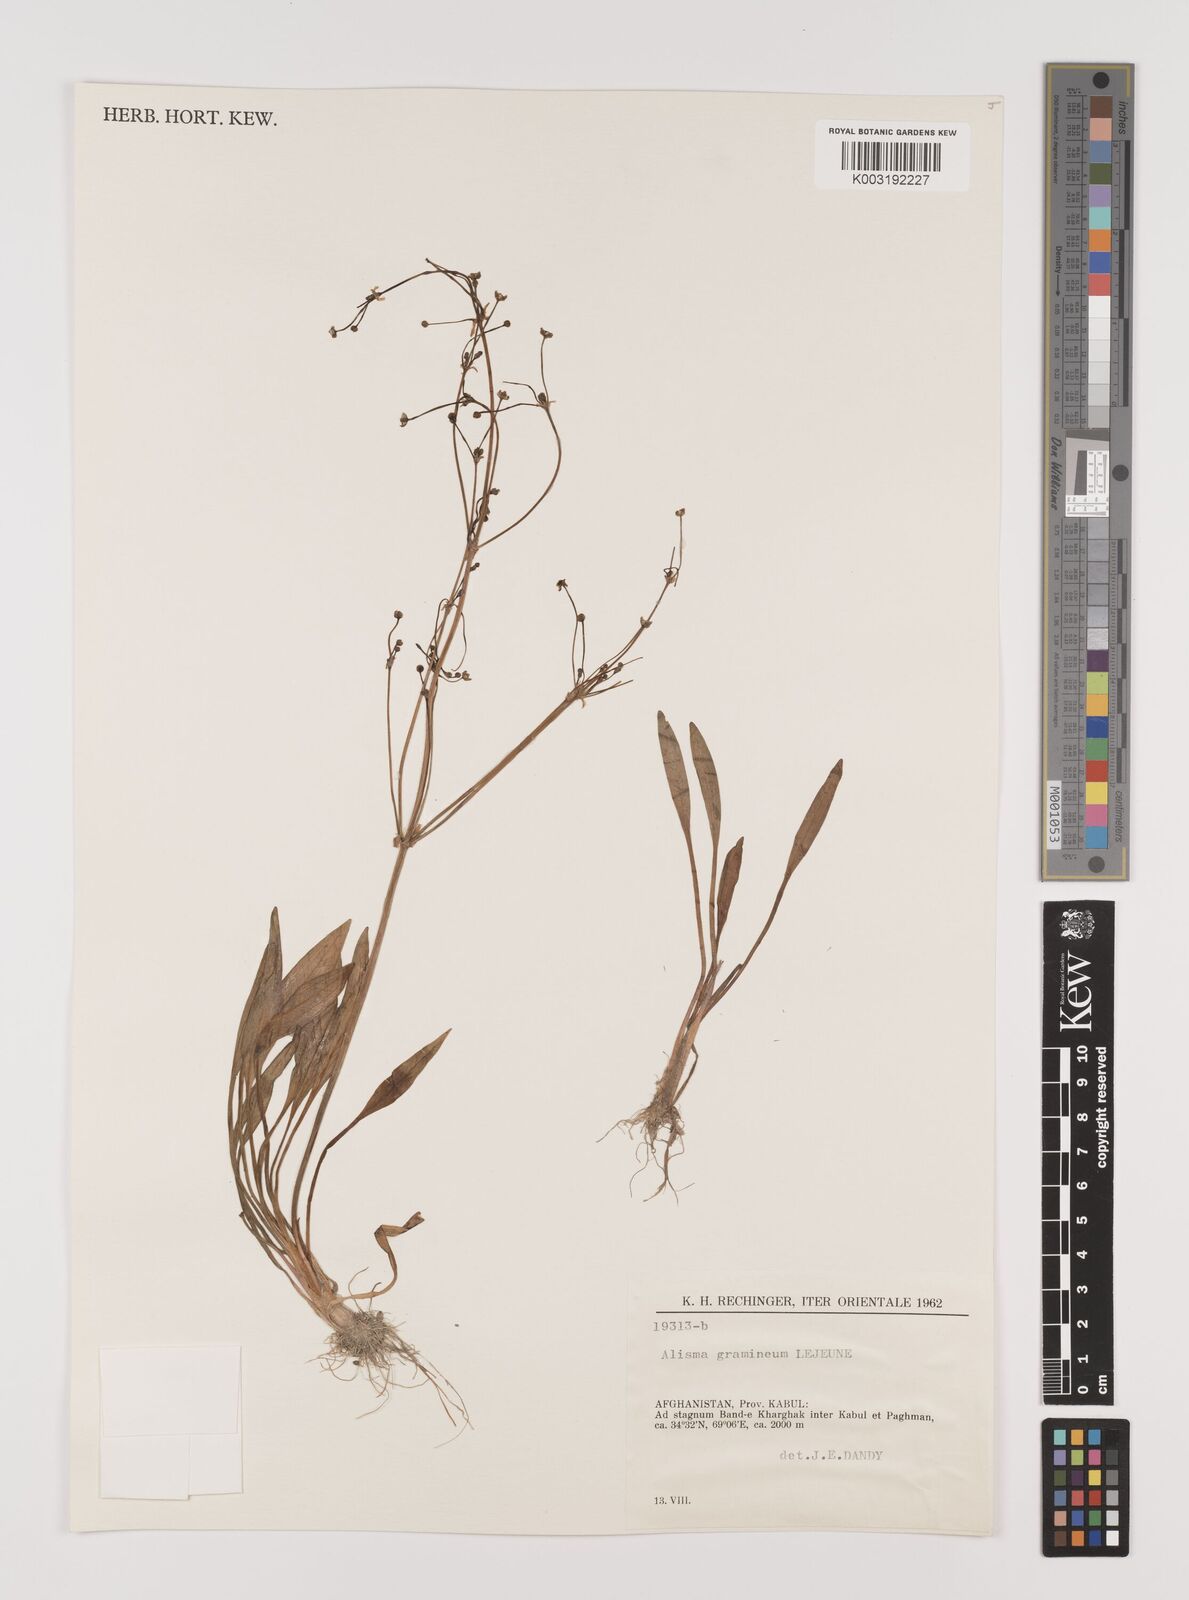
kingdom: Plantae
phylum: Tracheophyta
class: Liliopsida
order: Alismatales
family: Alismataceae
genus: Alisma
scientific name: Alisma gramineum
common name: Ribbon-leaved water-plantain
